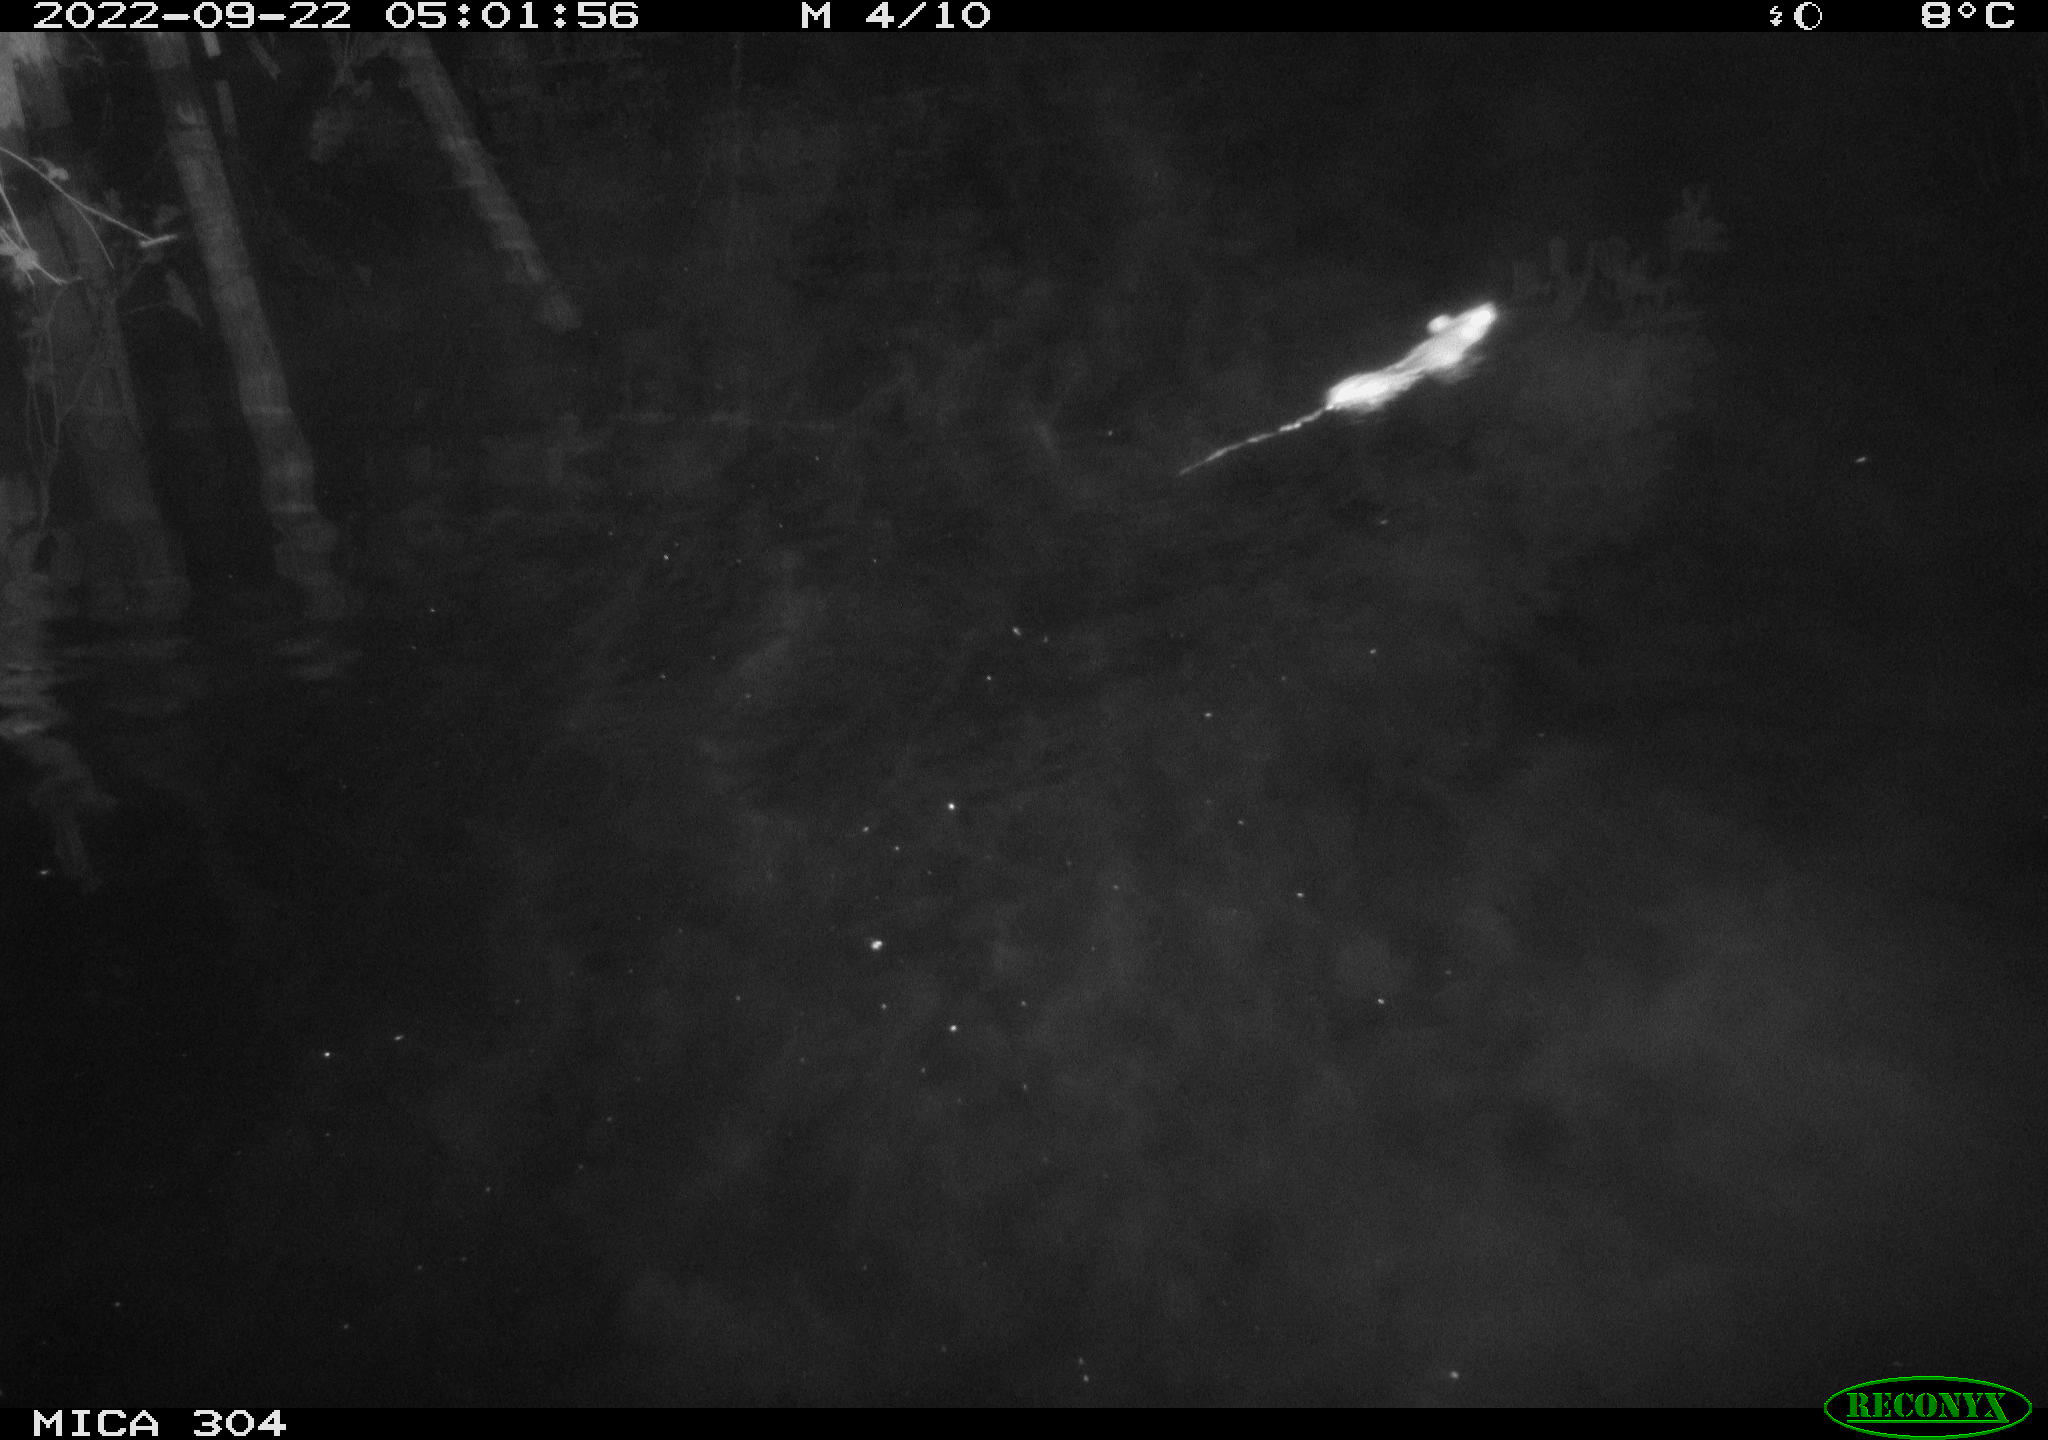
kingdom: Animalia
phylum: Chordata
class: Mammalia
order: Rodentia
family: Muridae
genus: Rattus
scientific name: Rattus norvegicus
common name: Brown rat
